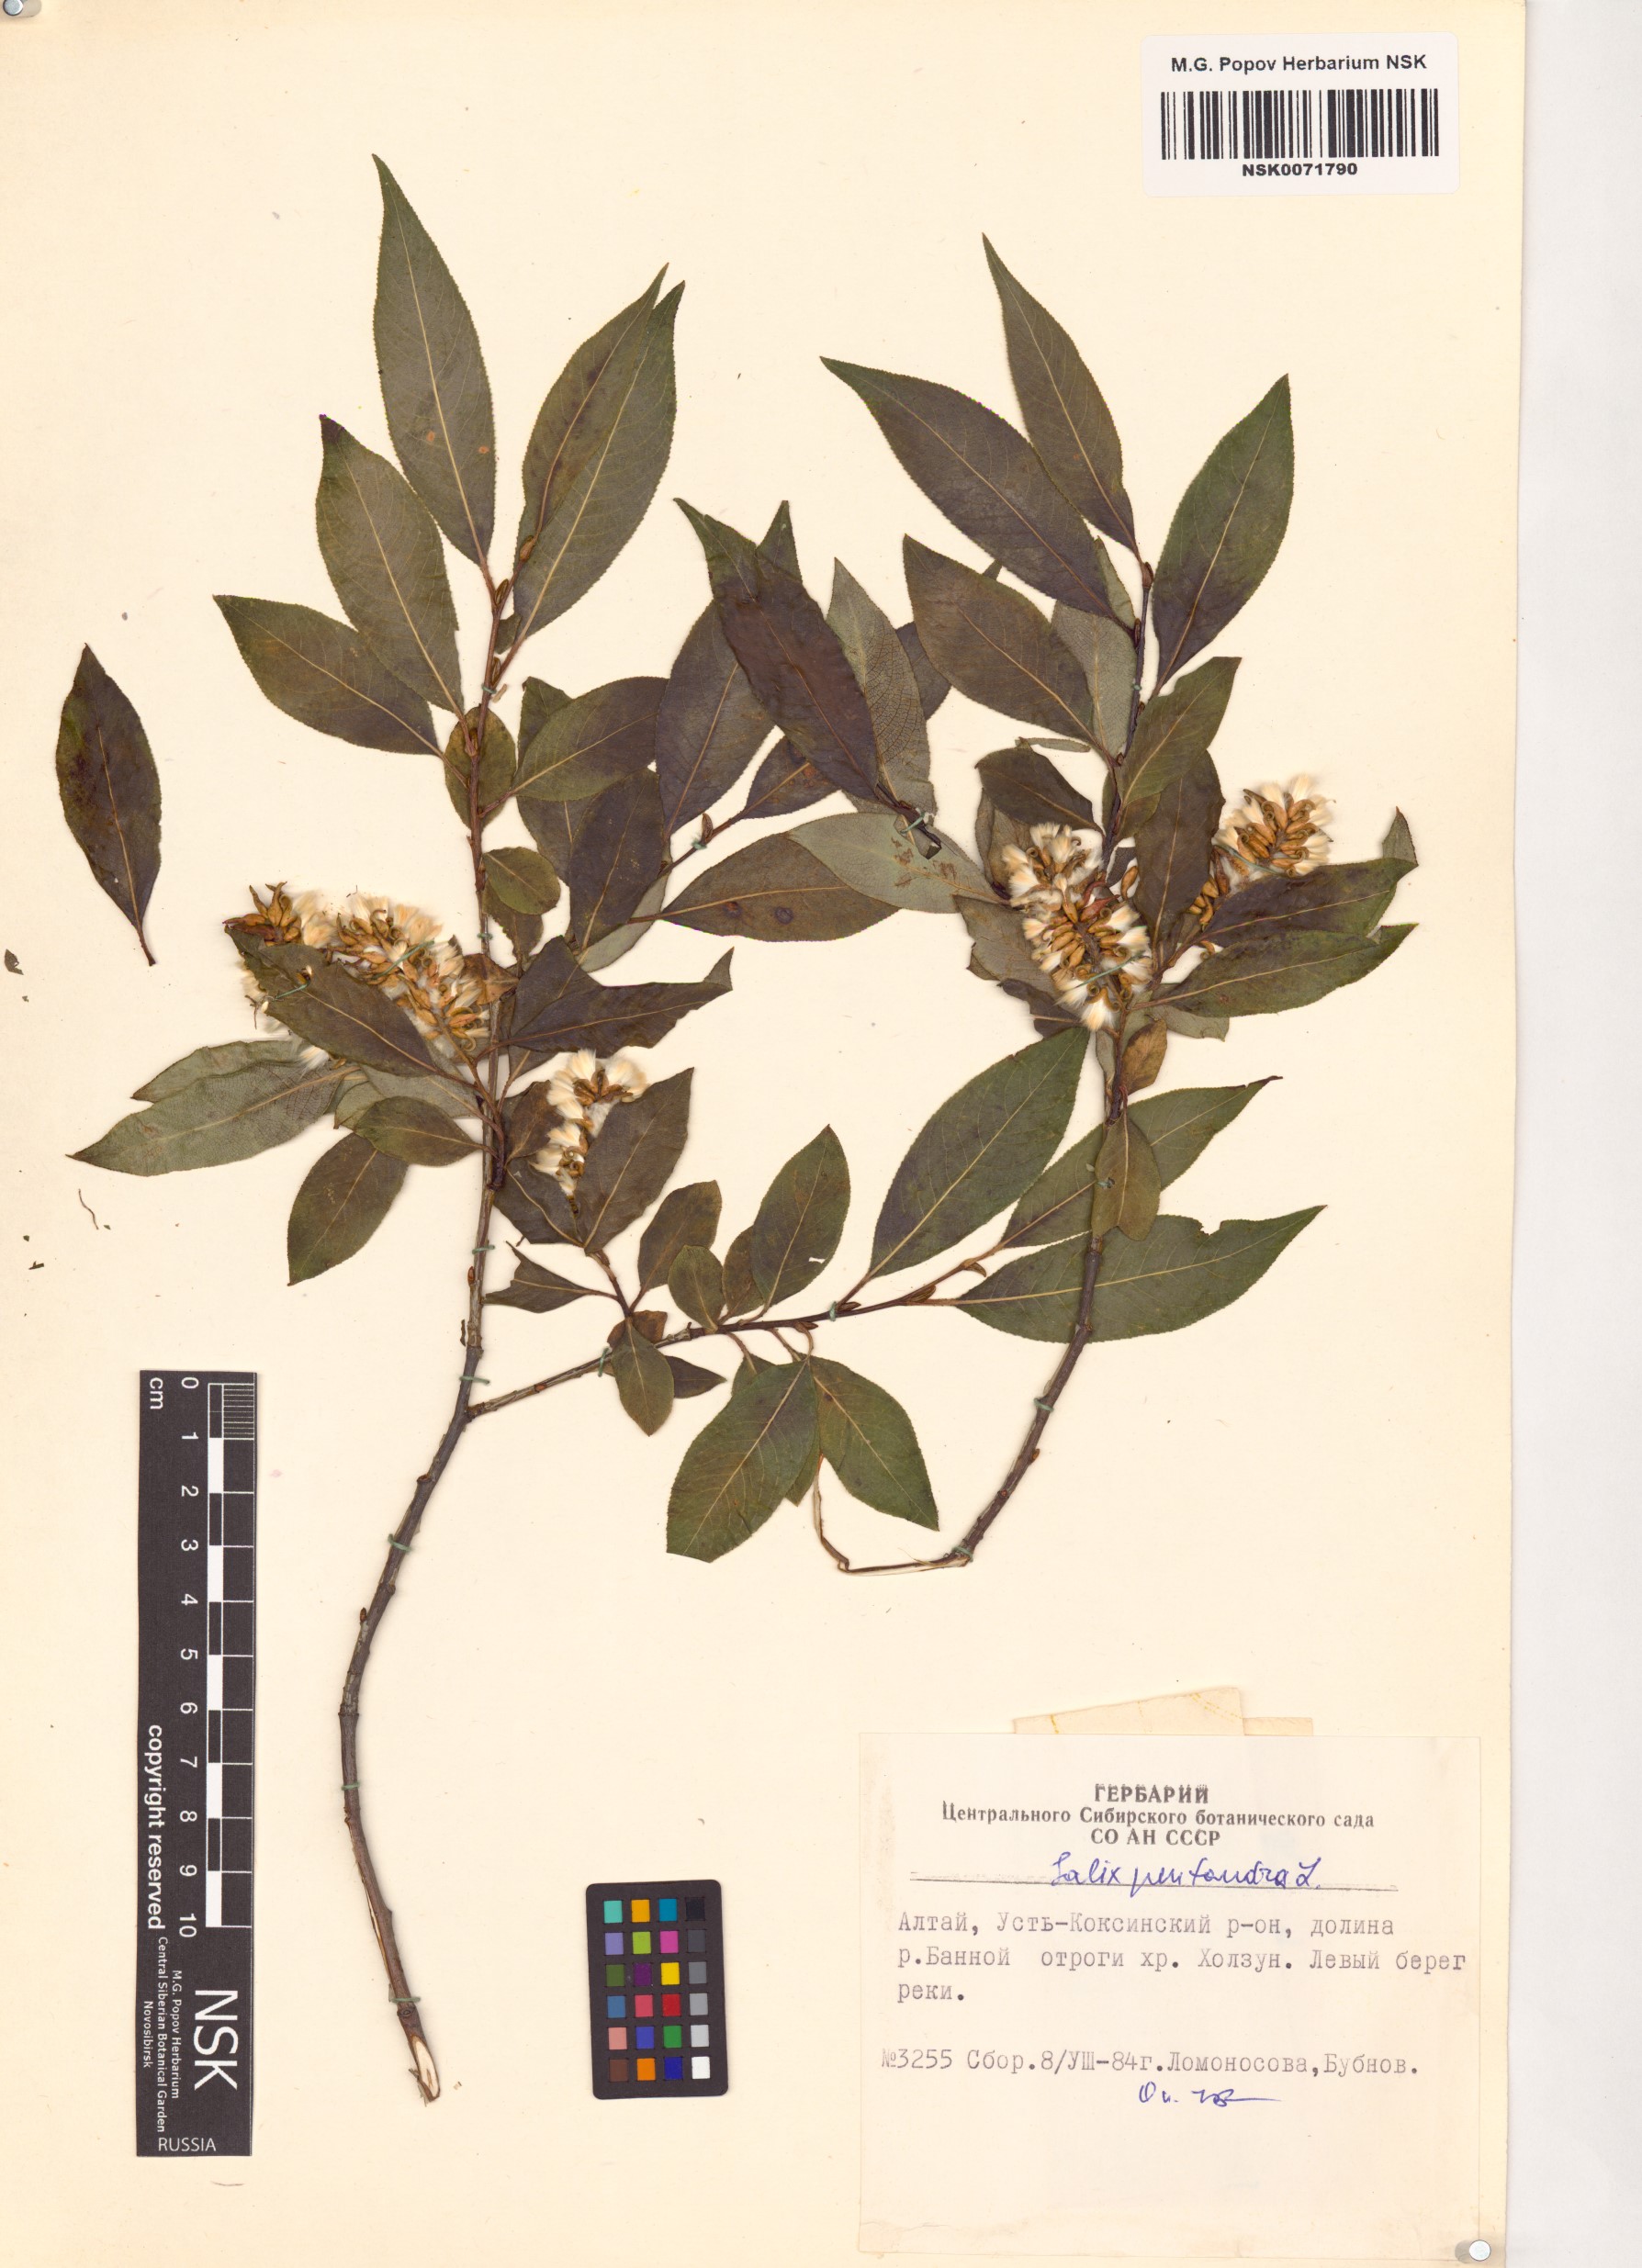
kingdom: Plantae
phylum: Tracheophyta
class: Magnoliopsida
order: Malpighiales
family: Salicaceae
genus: Salix
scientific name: Salix pentandra
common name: Bay willow
